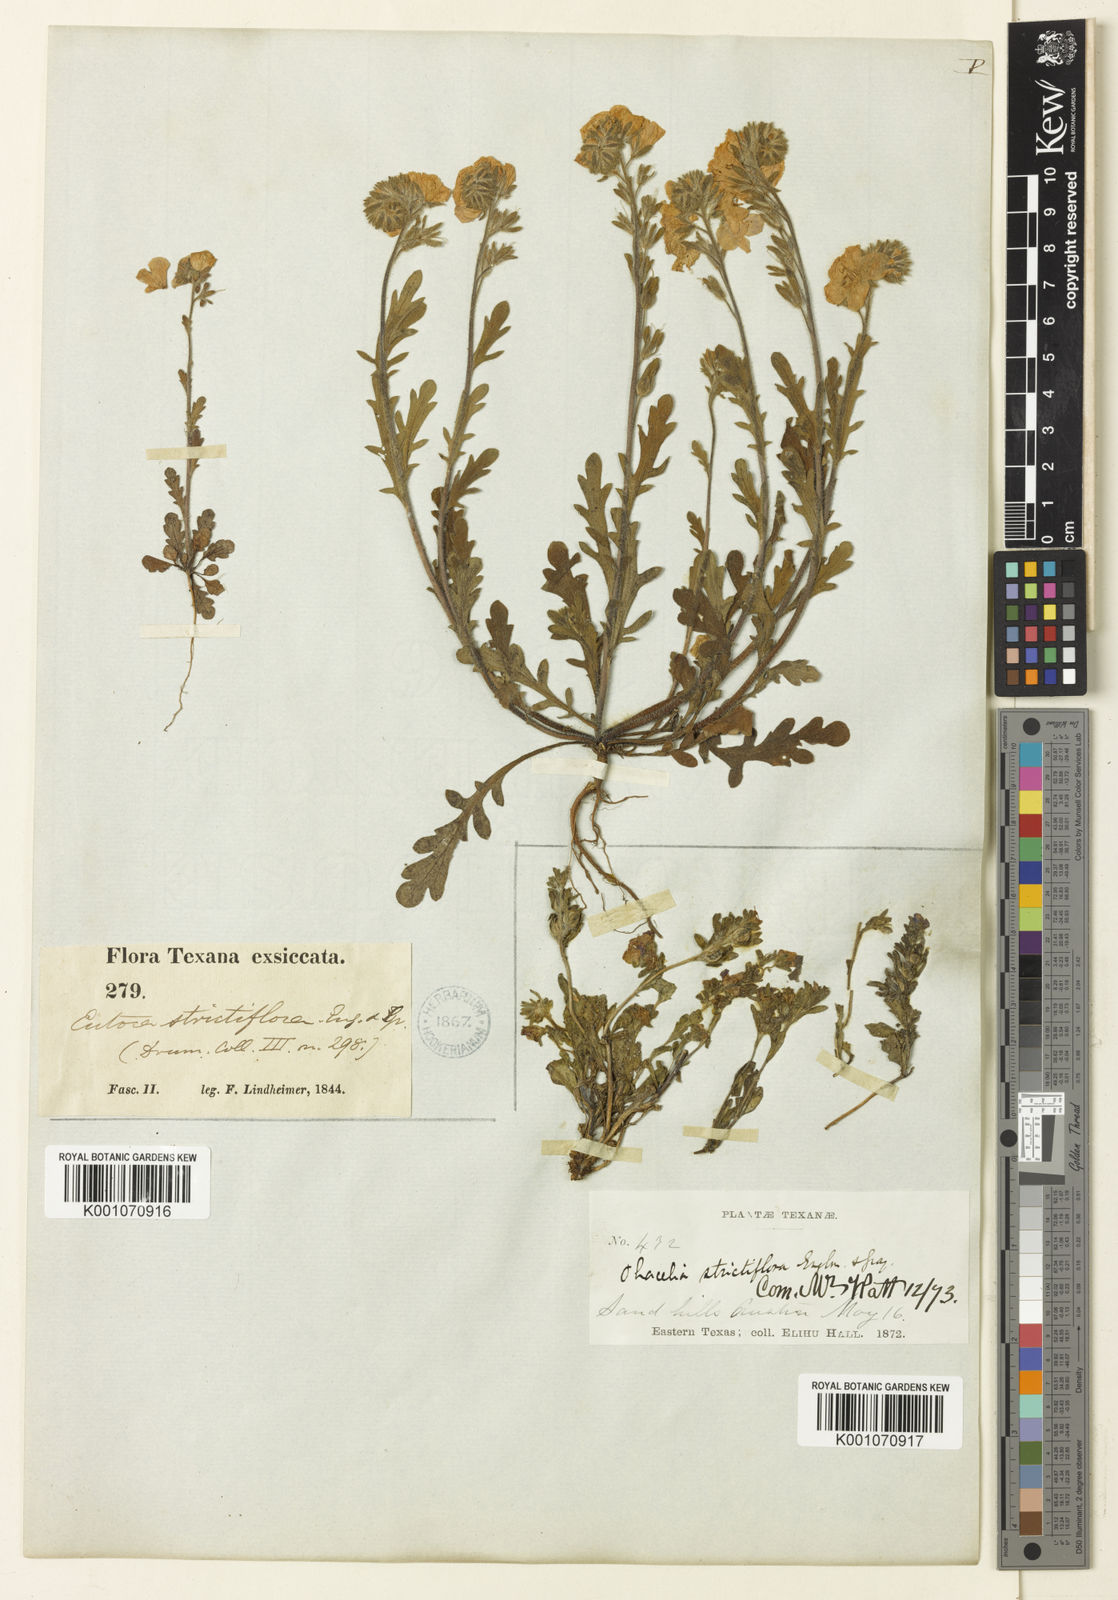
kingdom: Plantae
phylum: Tracheophyta
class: Magnoliopsida
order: Boraginales
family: Hydrophyllaceae
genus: Phacelia
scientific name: Phacelia strictiflora
